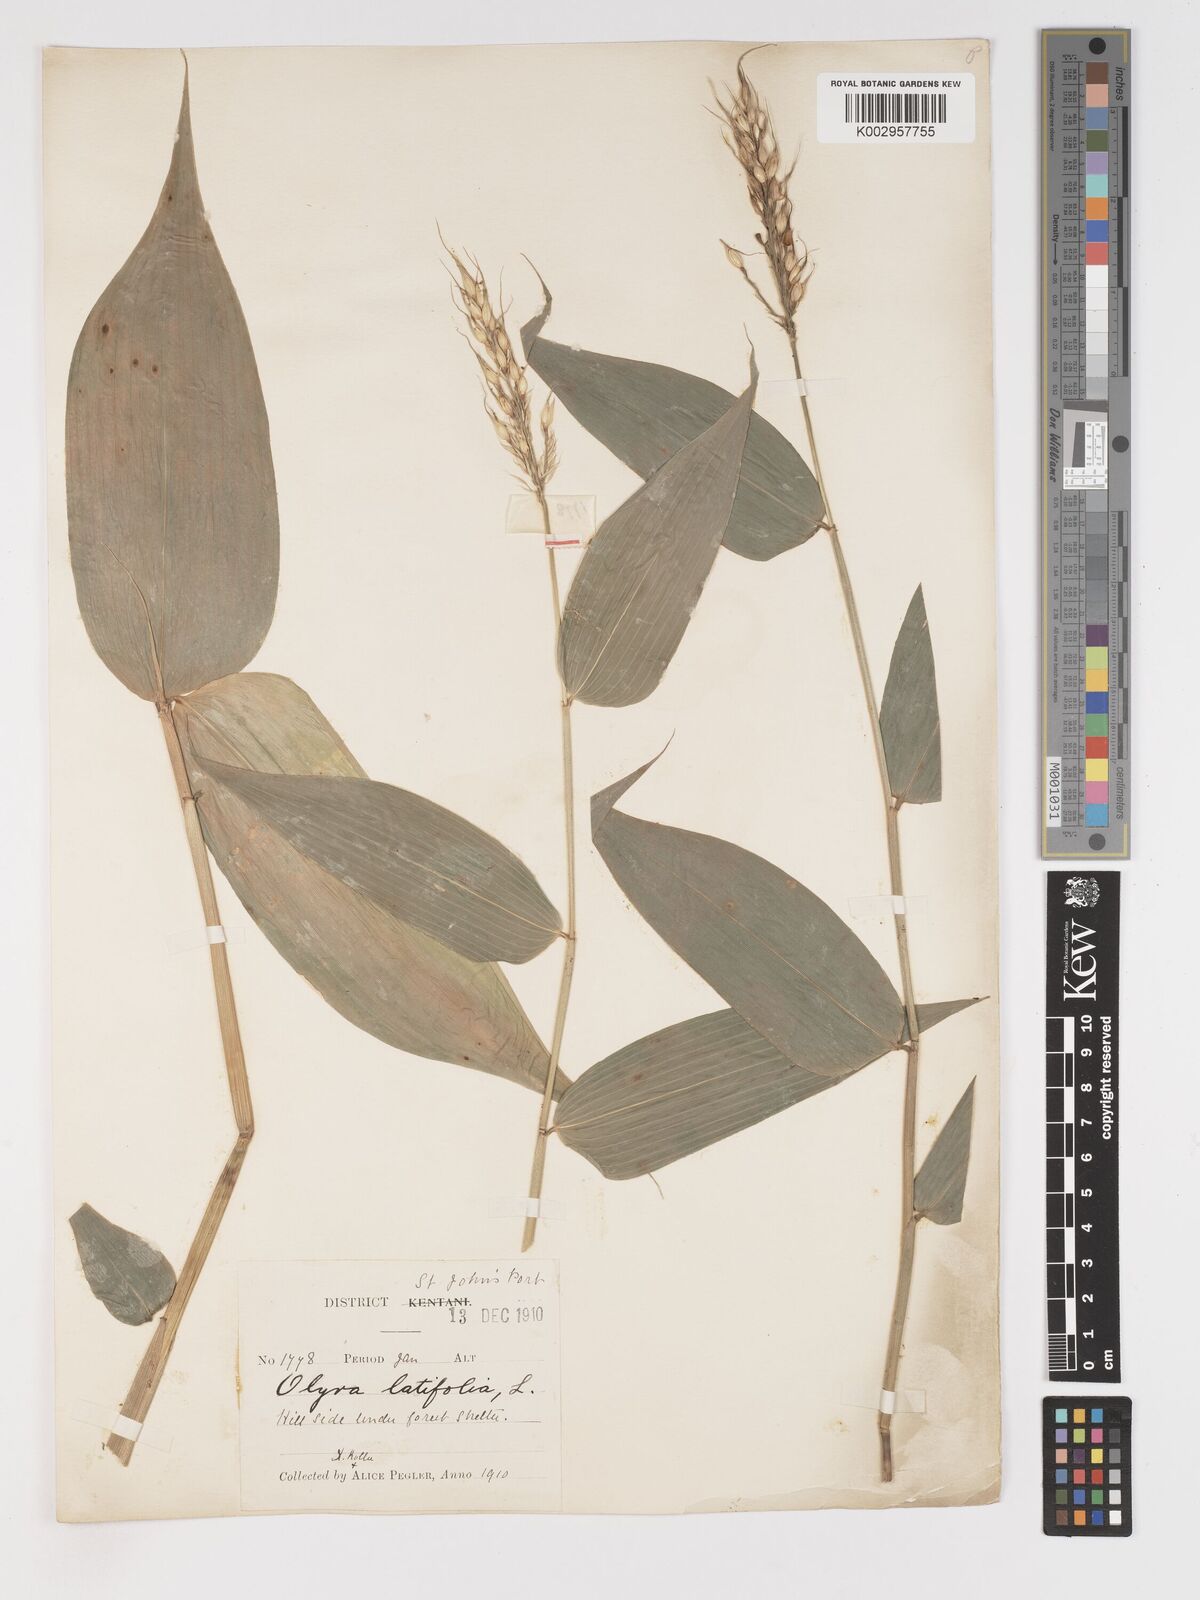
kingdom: Plantae
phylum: Tracheophyta
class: Liliopsida
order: Poales
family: Poaceae
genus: Olyra
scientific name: Olyra latifolia
